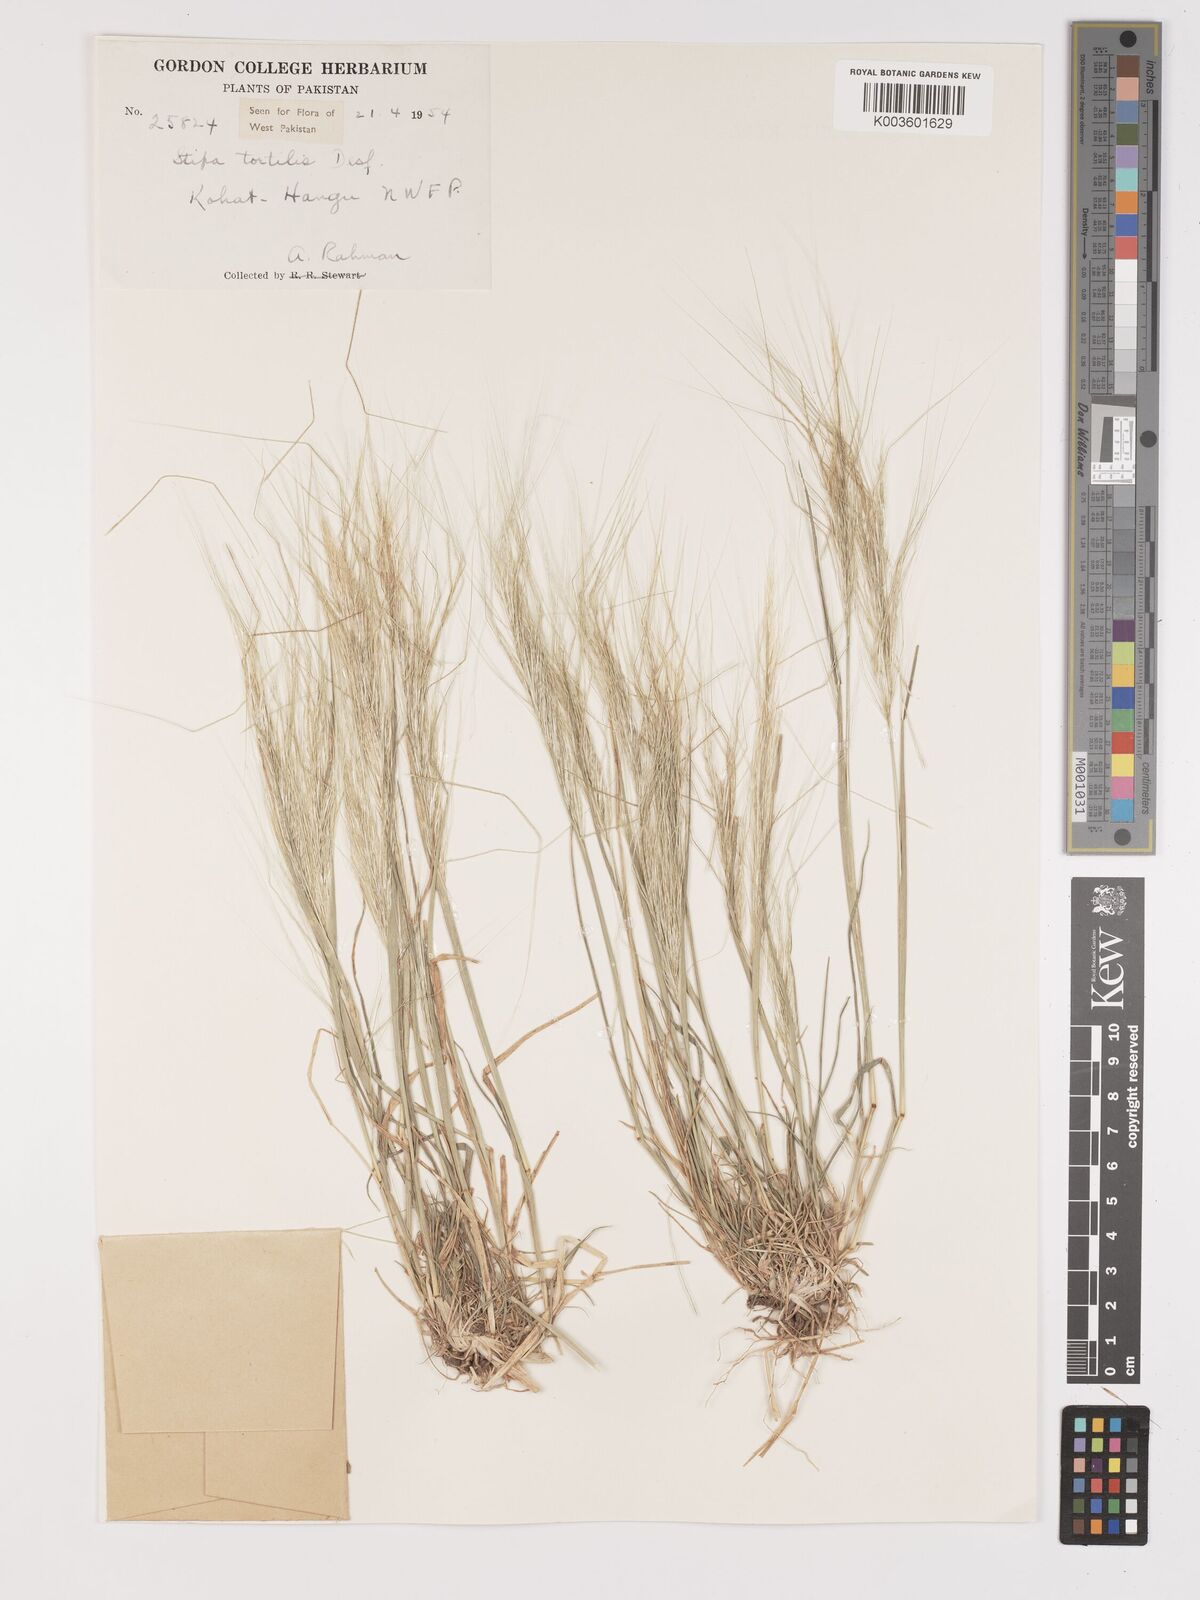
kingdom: Plantae
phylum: Tracheophyta
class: Liliopsida
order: Poales
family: Poaceae
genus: Stipellula
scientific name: Stipellula capensis
